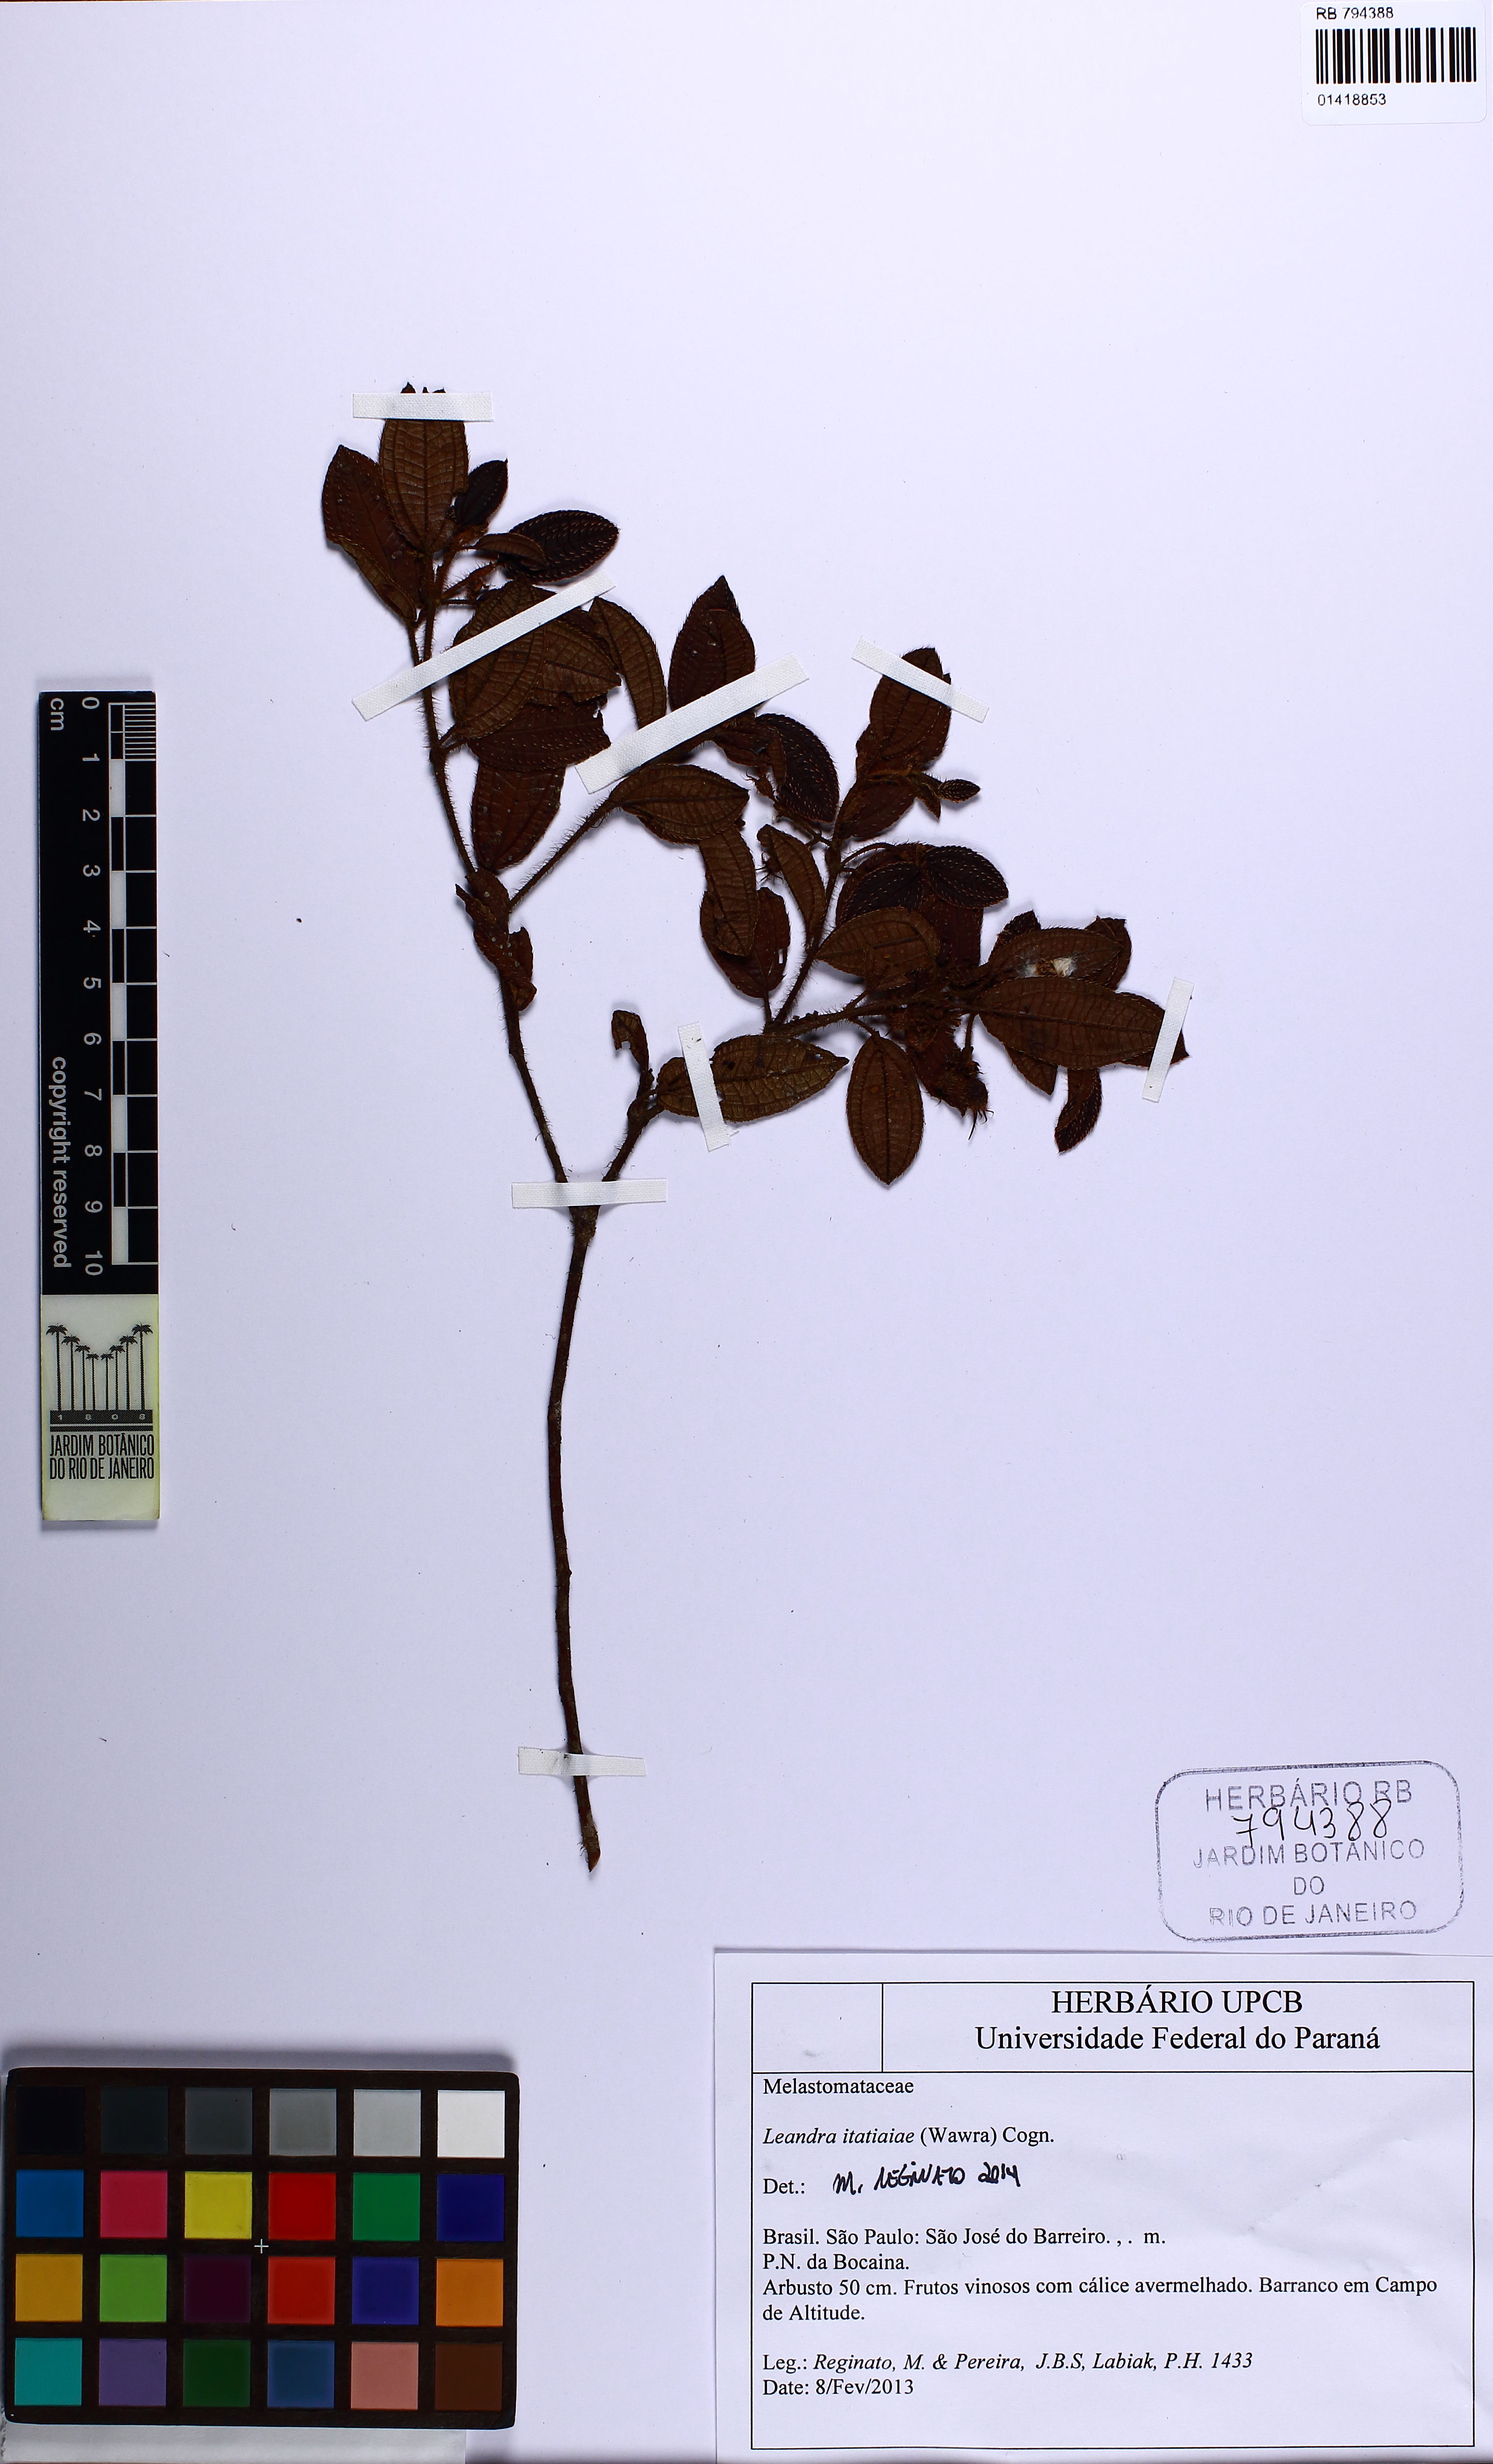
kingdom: Plantae
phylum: Tracheophyta
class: Magnoliopsida
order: Myrtales
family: Melastomataceae
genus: Miconia
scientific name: Miconia itatiaiae
